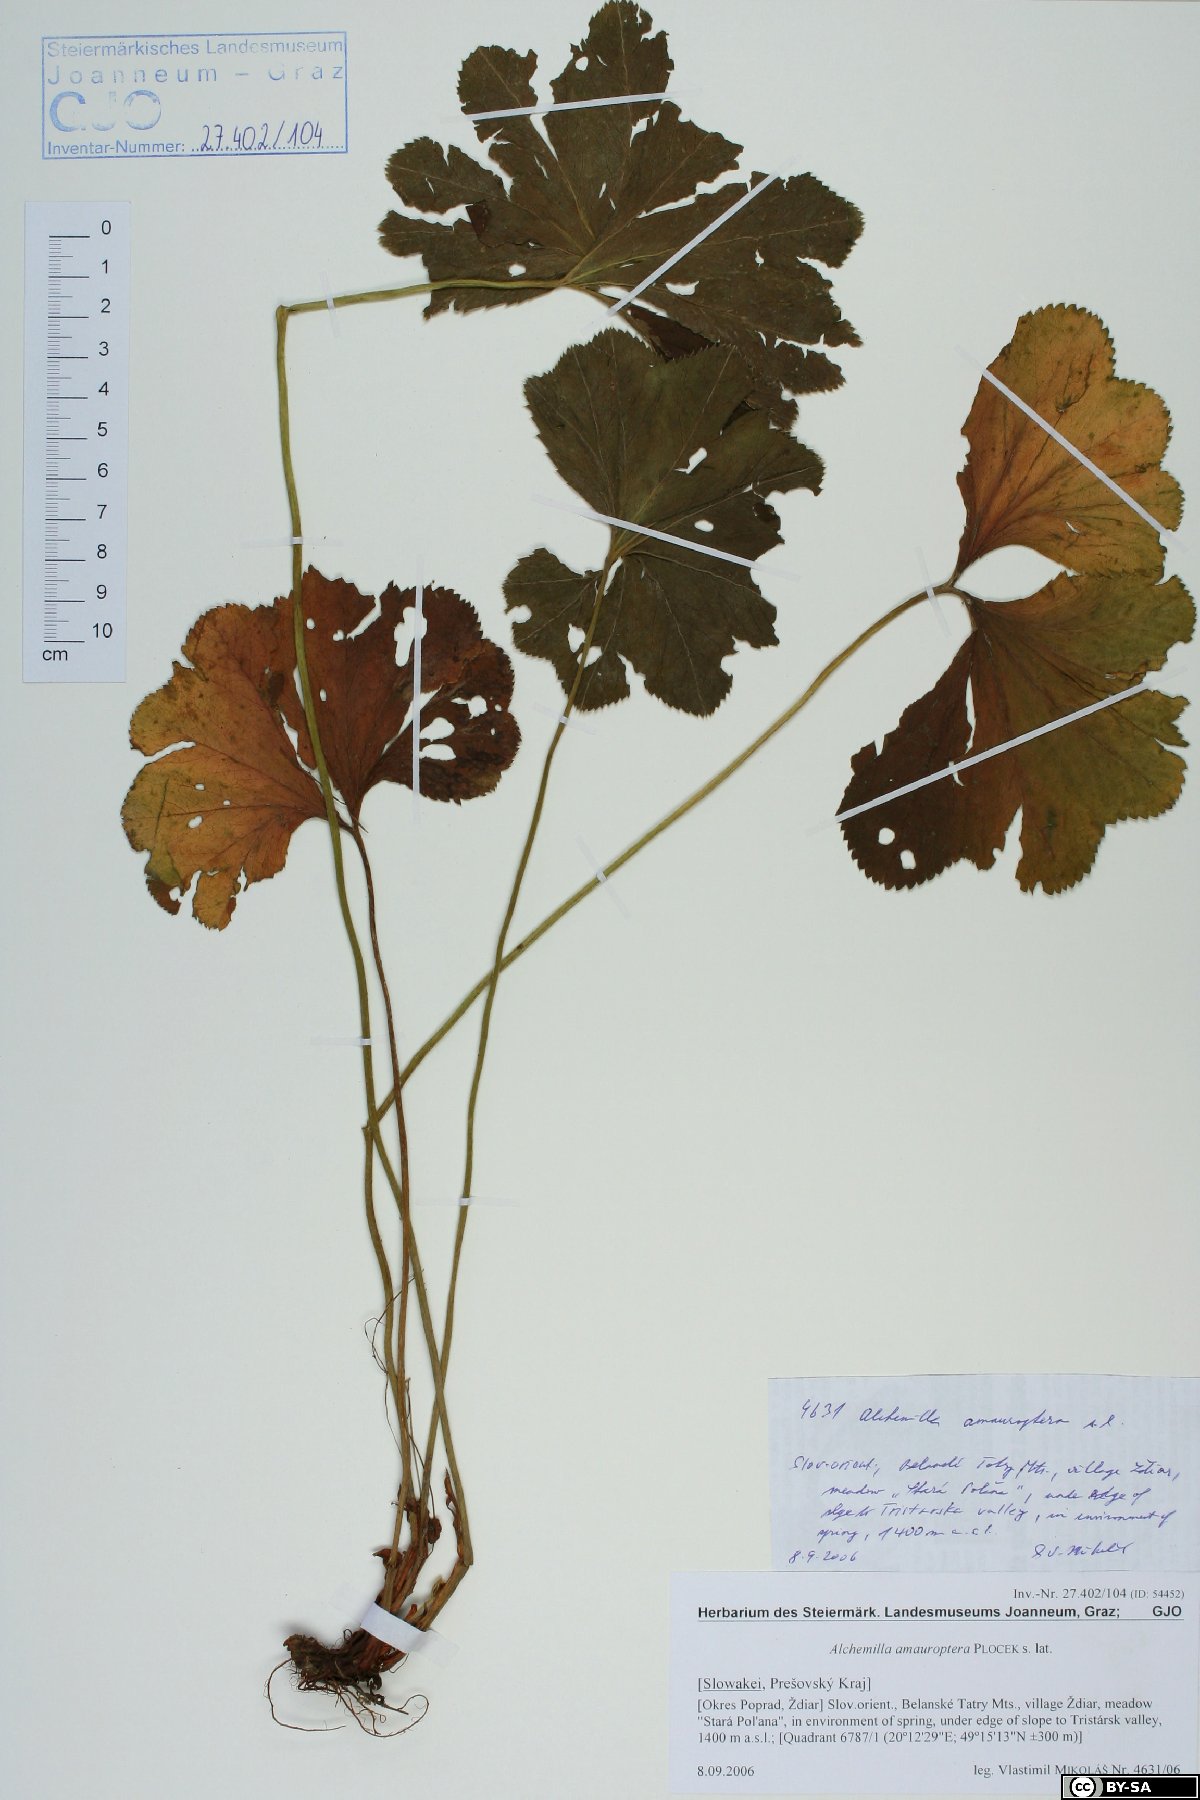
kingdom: Plantae
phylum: Tracheophyta
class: Magnoliopsida
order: Rosales
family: Rosaceae
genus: Alchemilla
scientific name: Alchemilla amauroptera
